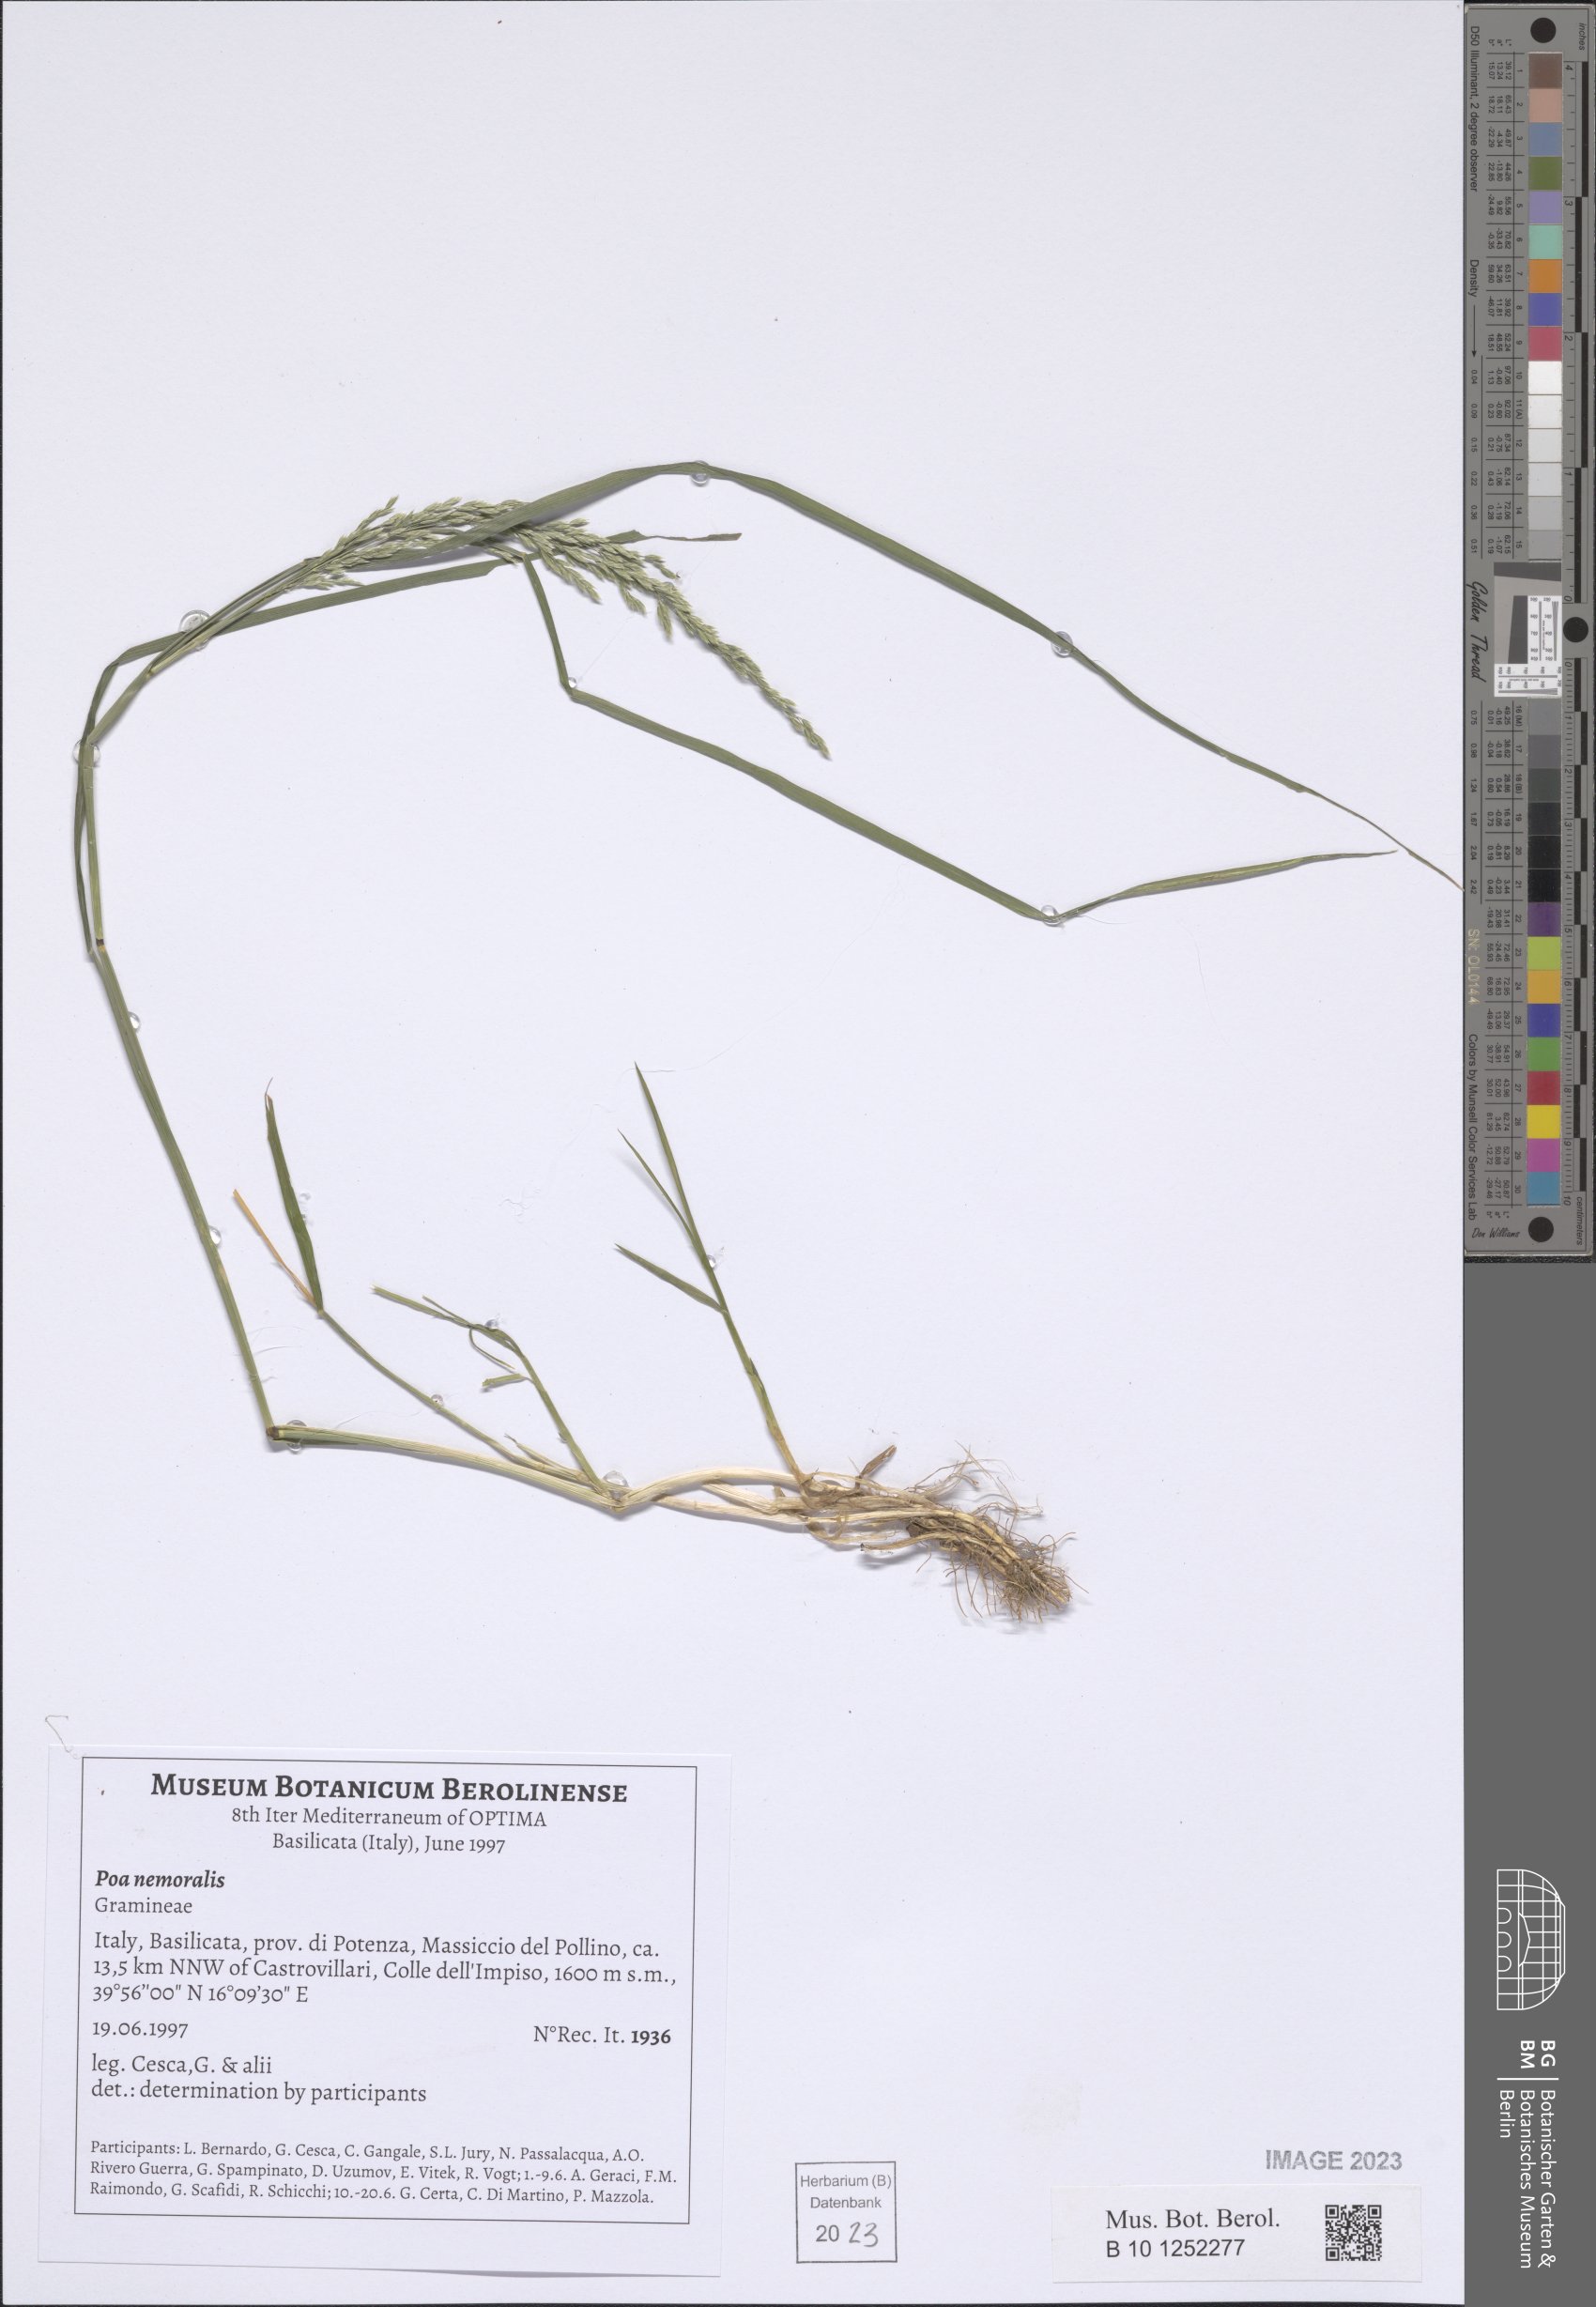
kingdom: Plantae
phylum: Tracheophyta
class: Liliopsida
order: Poales
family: Poaceae
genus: Poa
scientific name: Poa nemoralis
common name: Wood bluegrass
